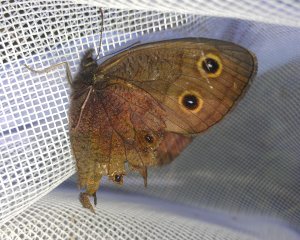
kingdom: Animalia
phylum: Arthropoda
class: Insecta
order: Lepidoptera
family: Nymphalidae
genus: Cercyonis
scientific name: Cercyonis pegala
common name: Common Wood-Nymph
